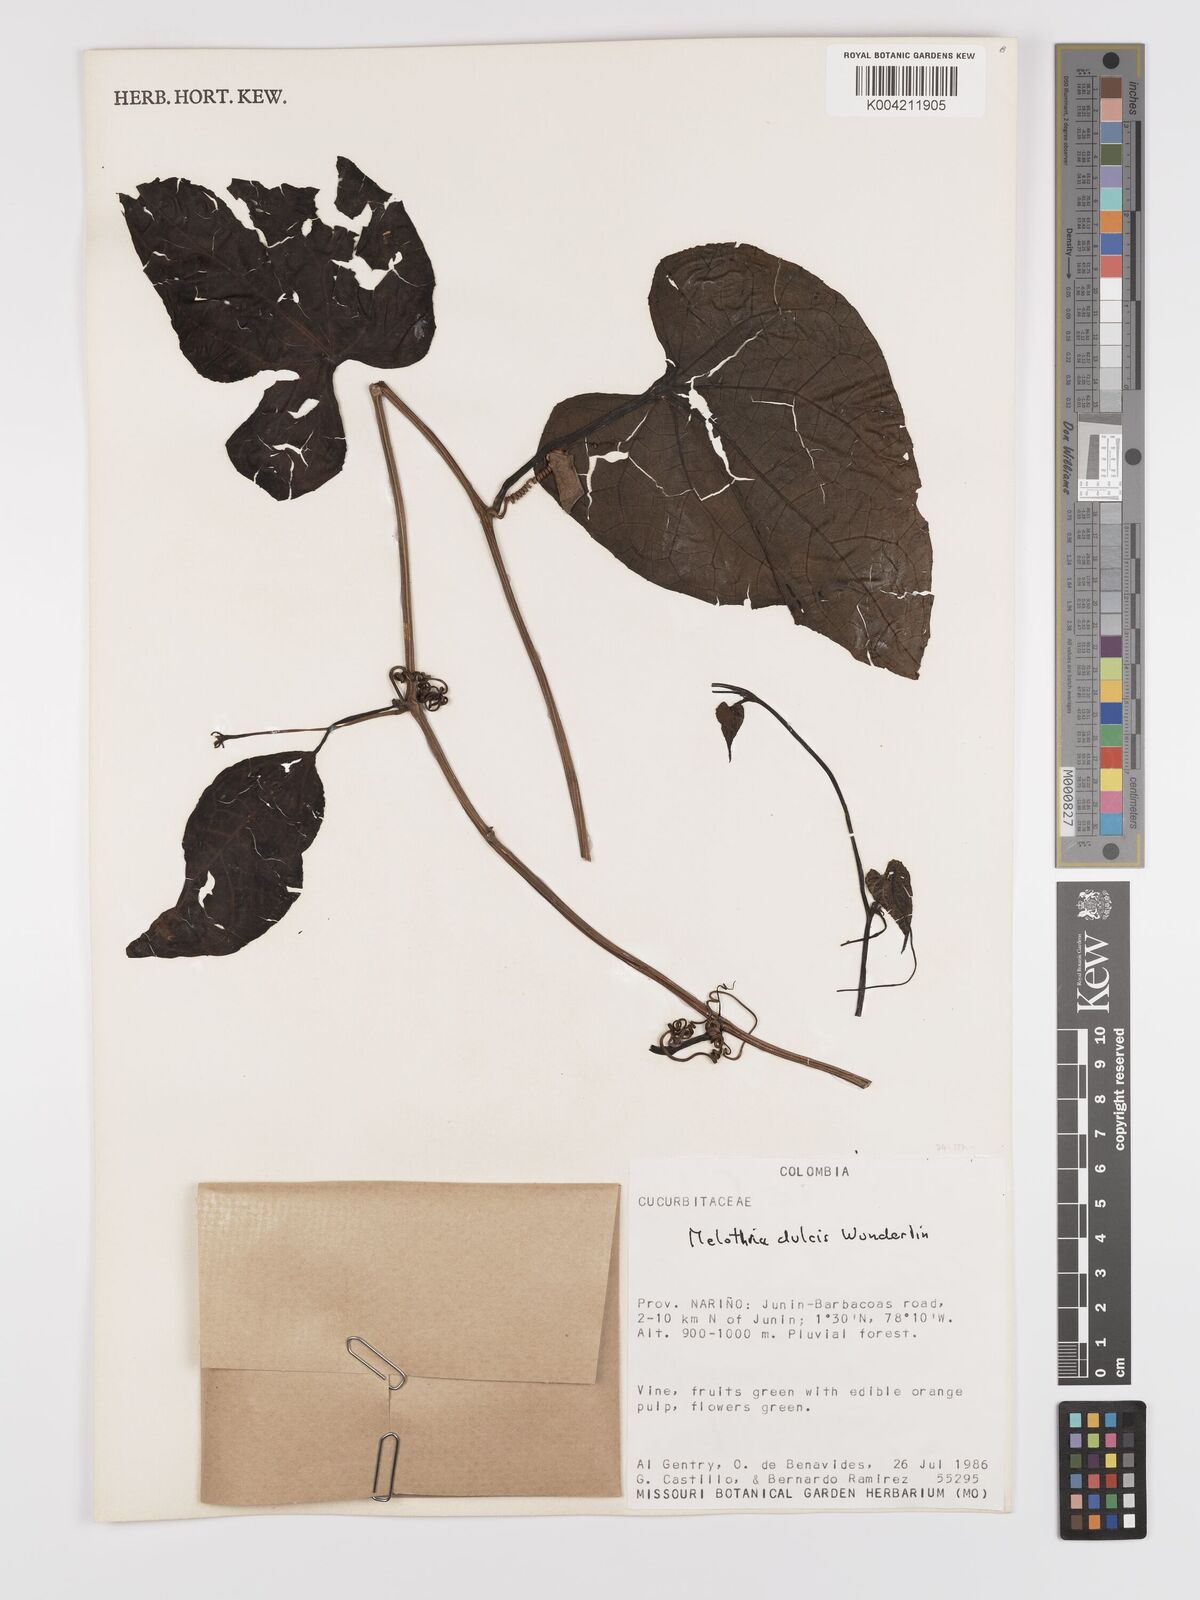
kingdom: Plantae
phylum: Tracheophyta
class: Magnoliopsida
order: Cucurbitales
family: Cucurbitaceae
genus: Melothria
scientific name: Melothria dulcis
